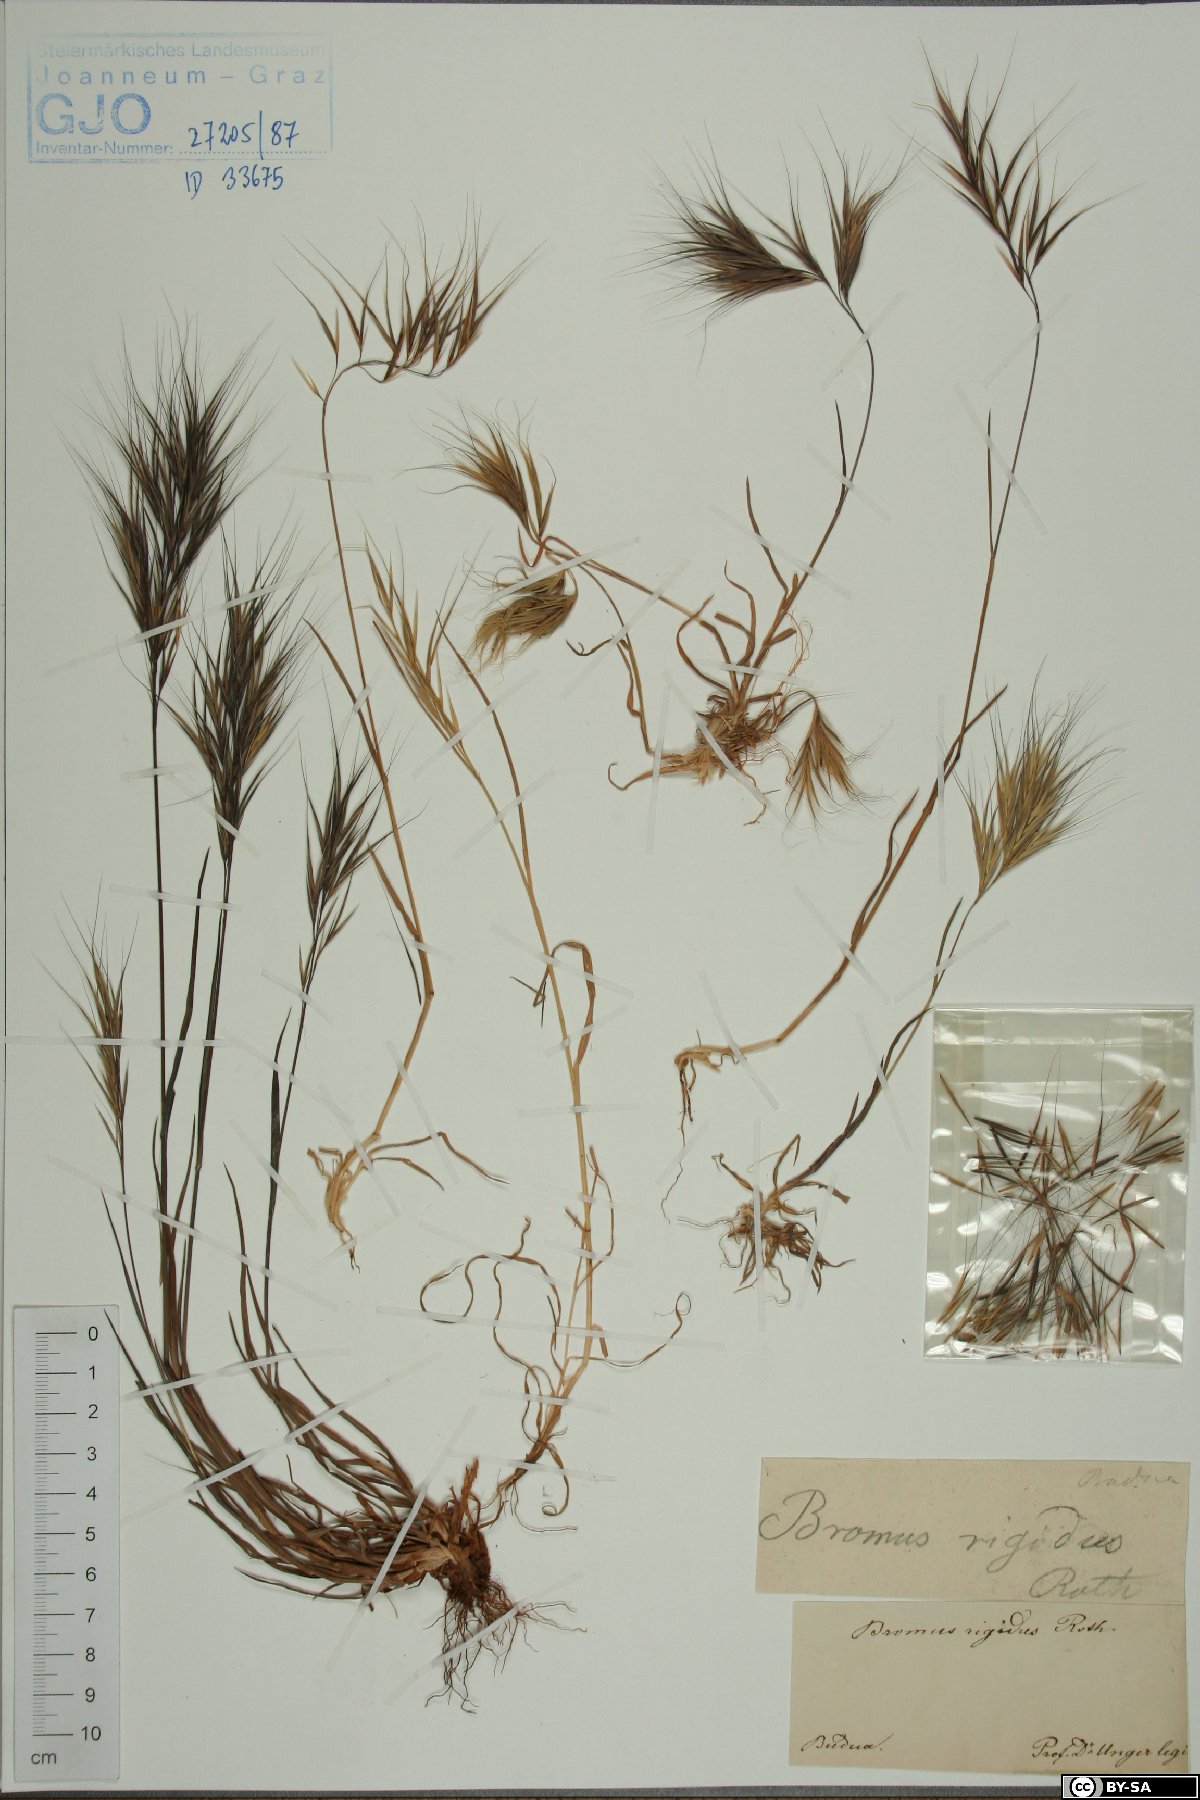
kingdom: Plantae
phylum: Tracheophyta
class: Liliopsida
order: Poales
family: Poaceae
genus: Bromus
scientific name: Bromus rigidus
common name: Ripgut brome
